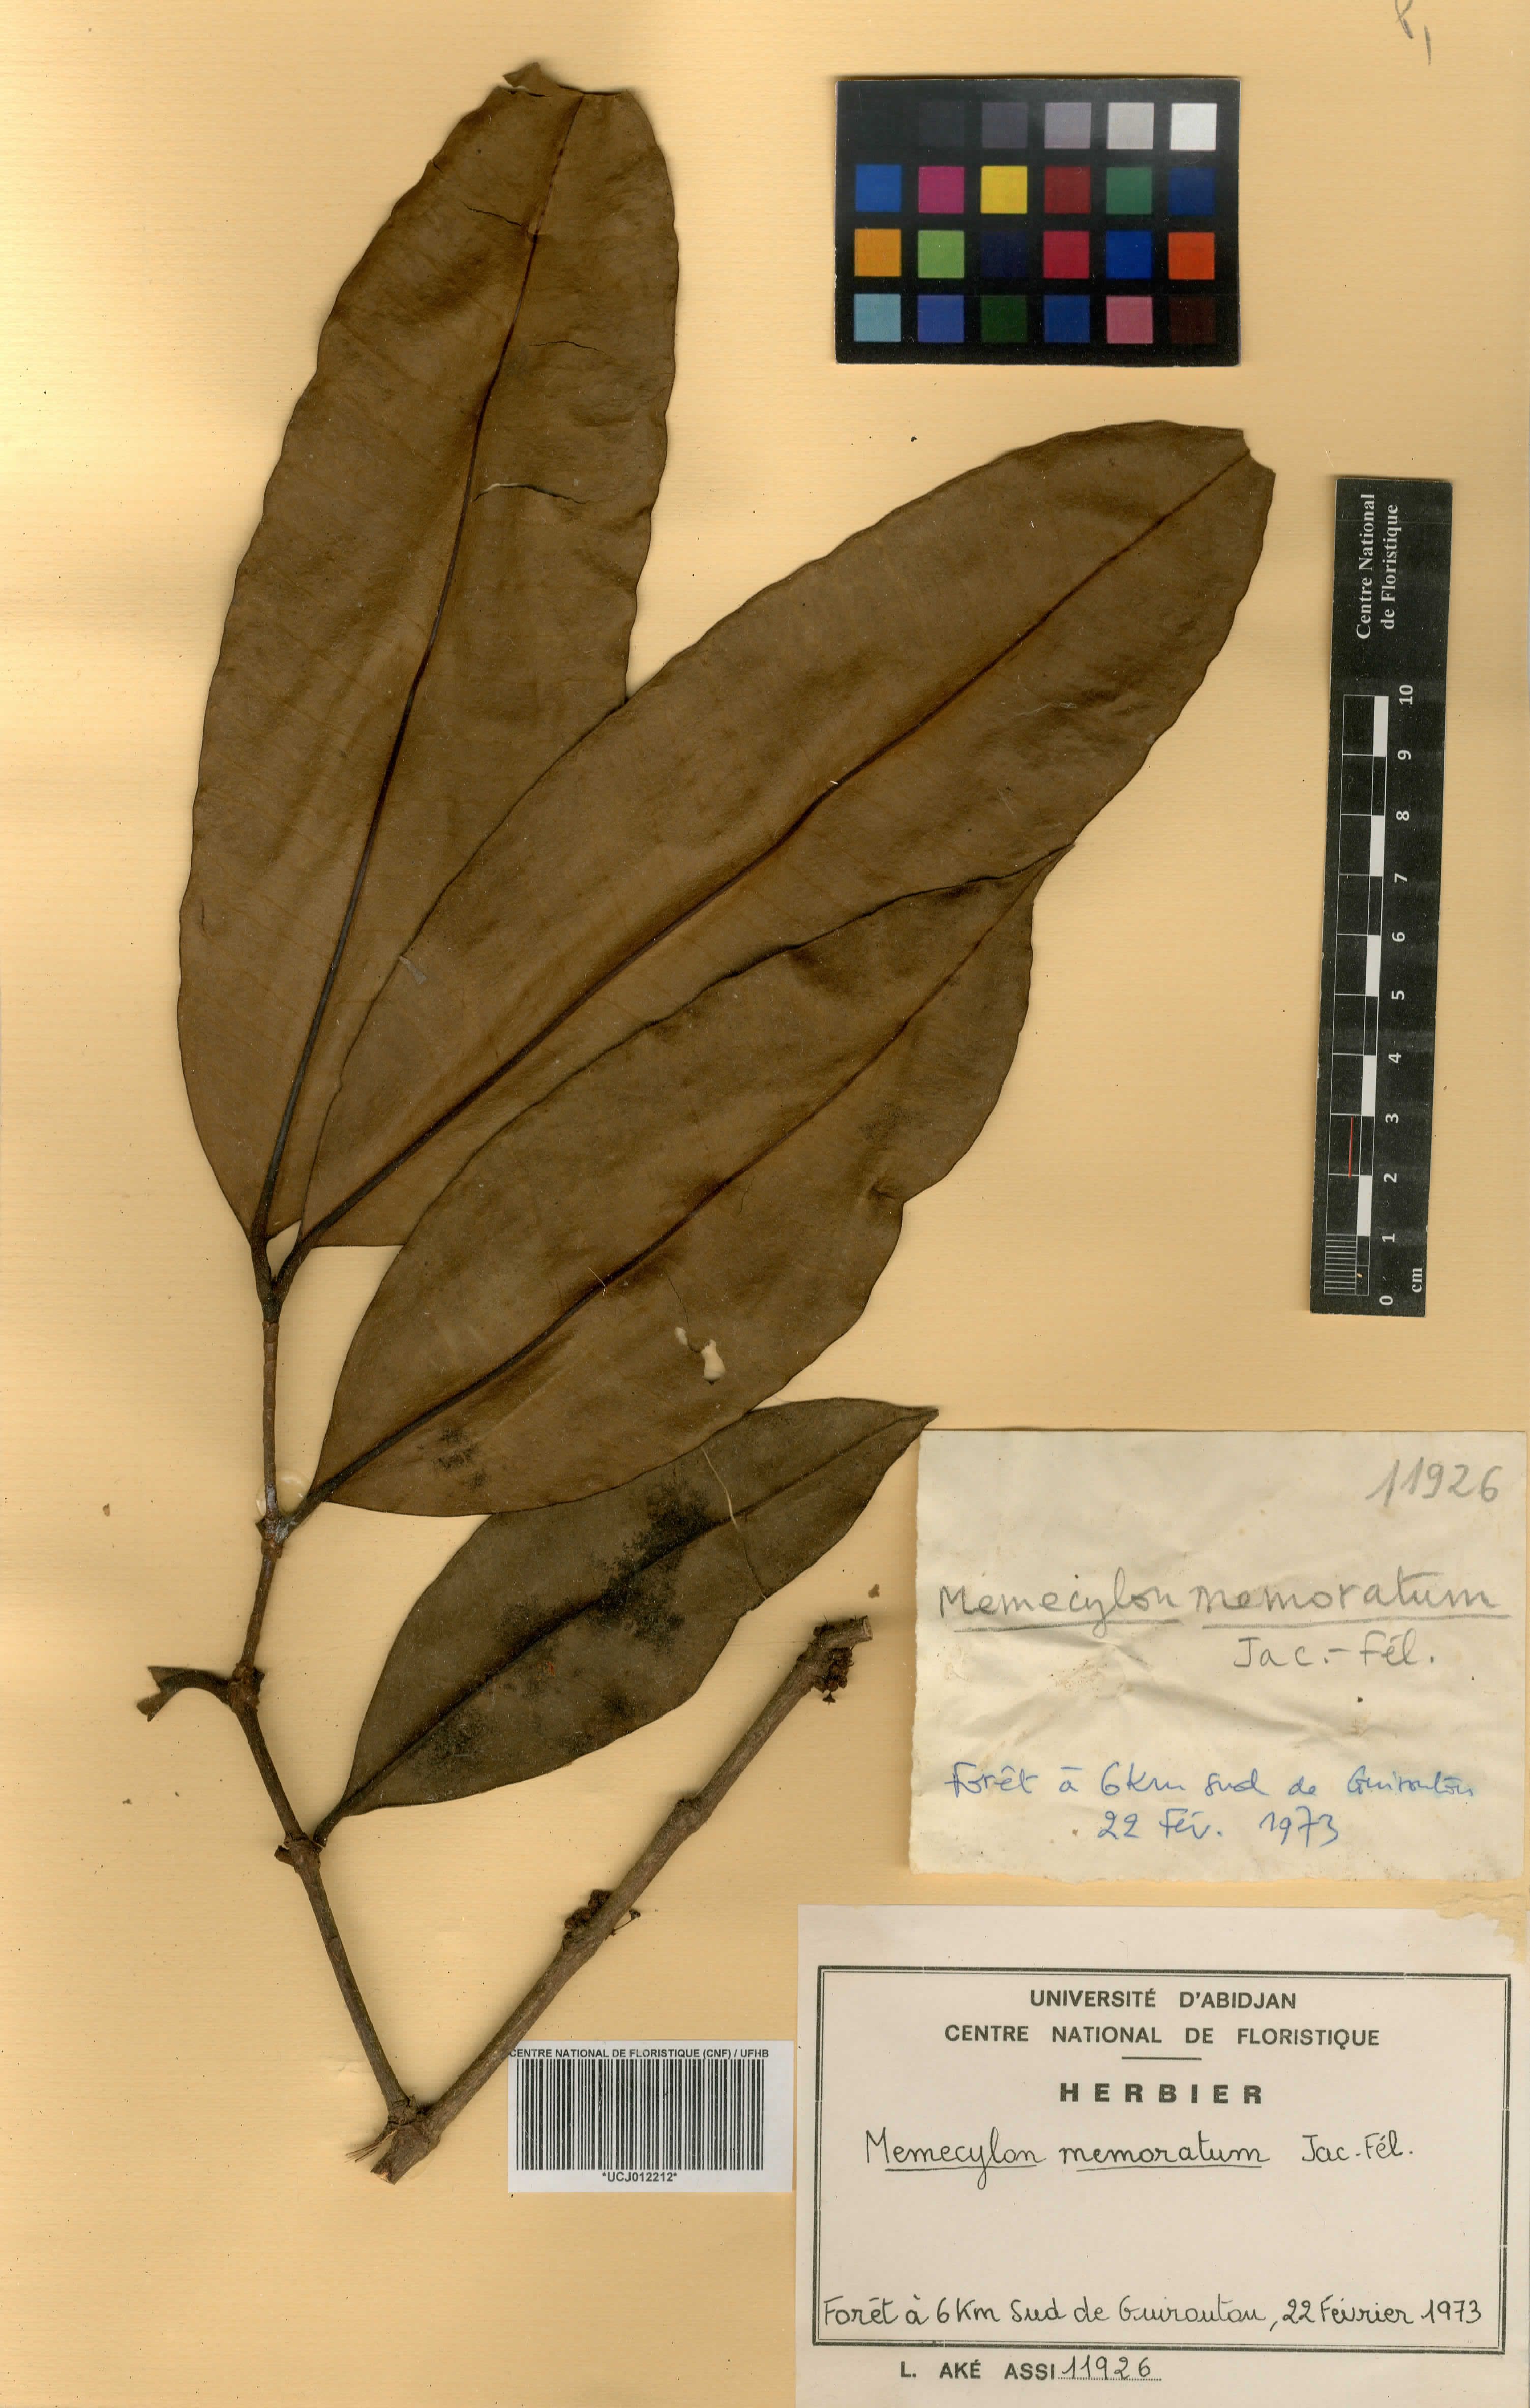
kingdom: Plantae
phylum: Tracheophyta
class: Magnoliopsida
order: Myrtales
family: Melastomataceae
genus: Memecylon
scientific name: Memecylon memoratum
